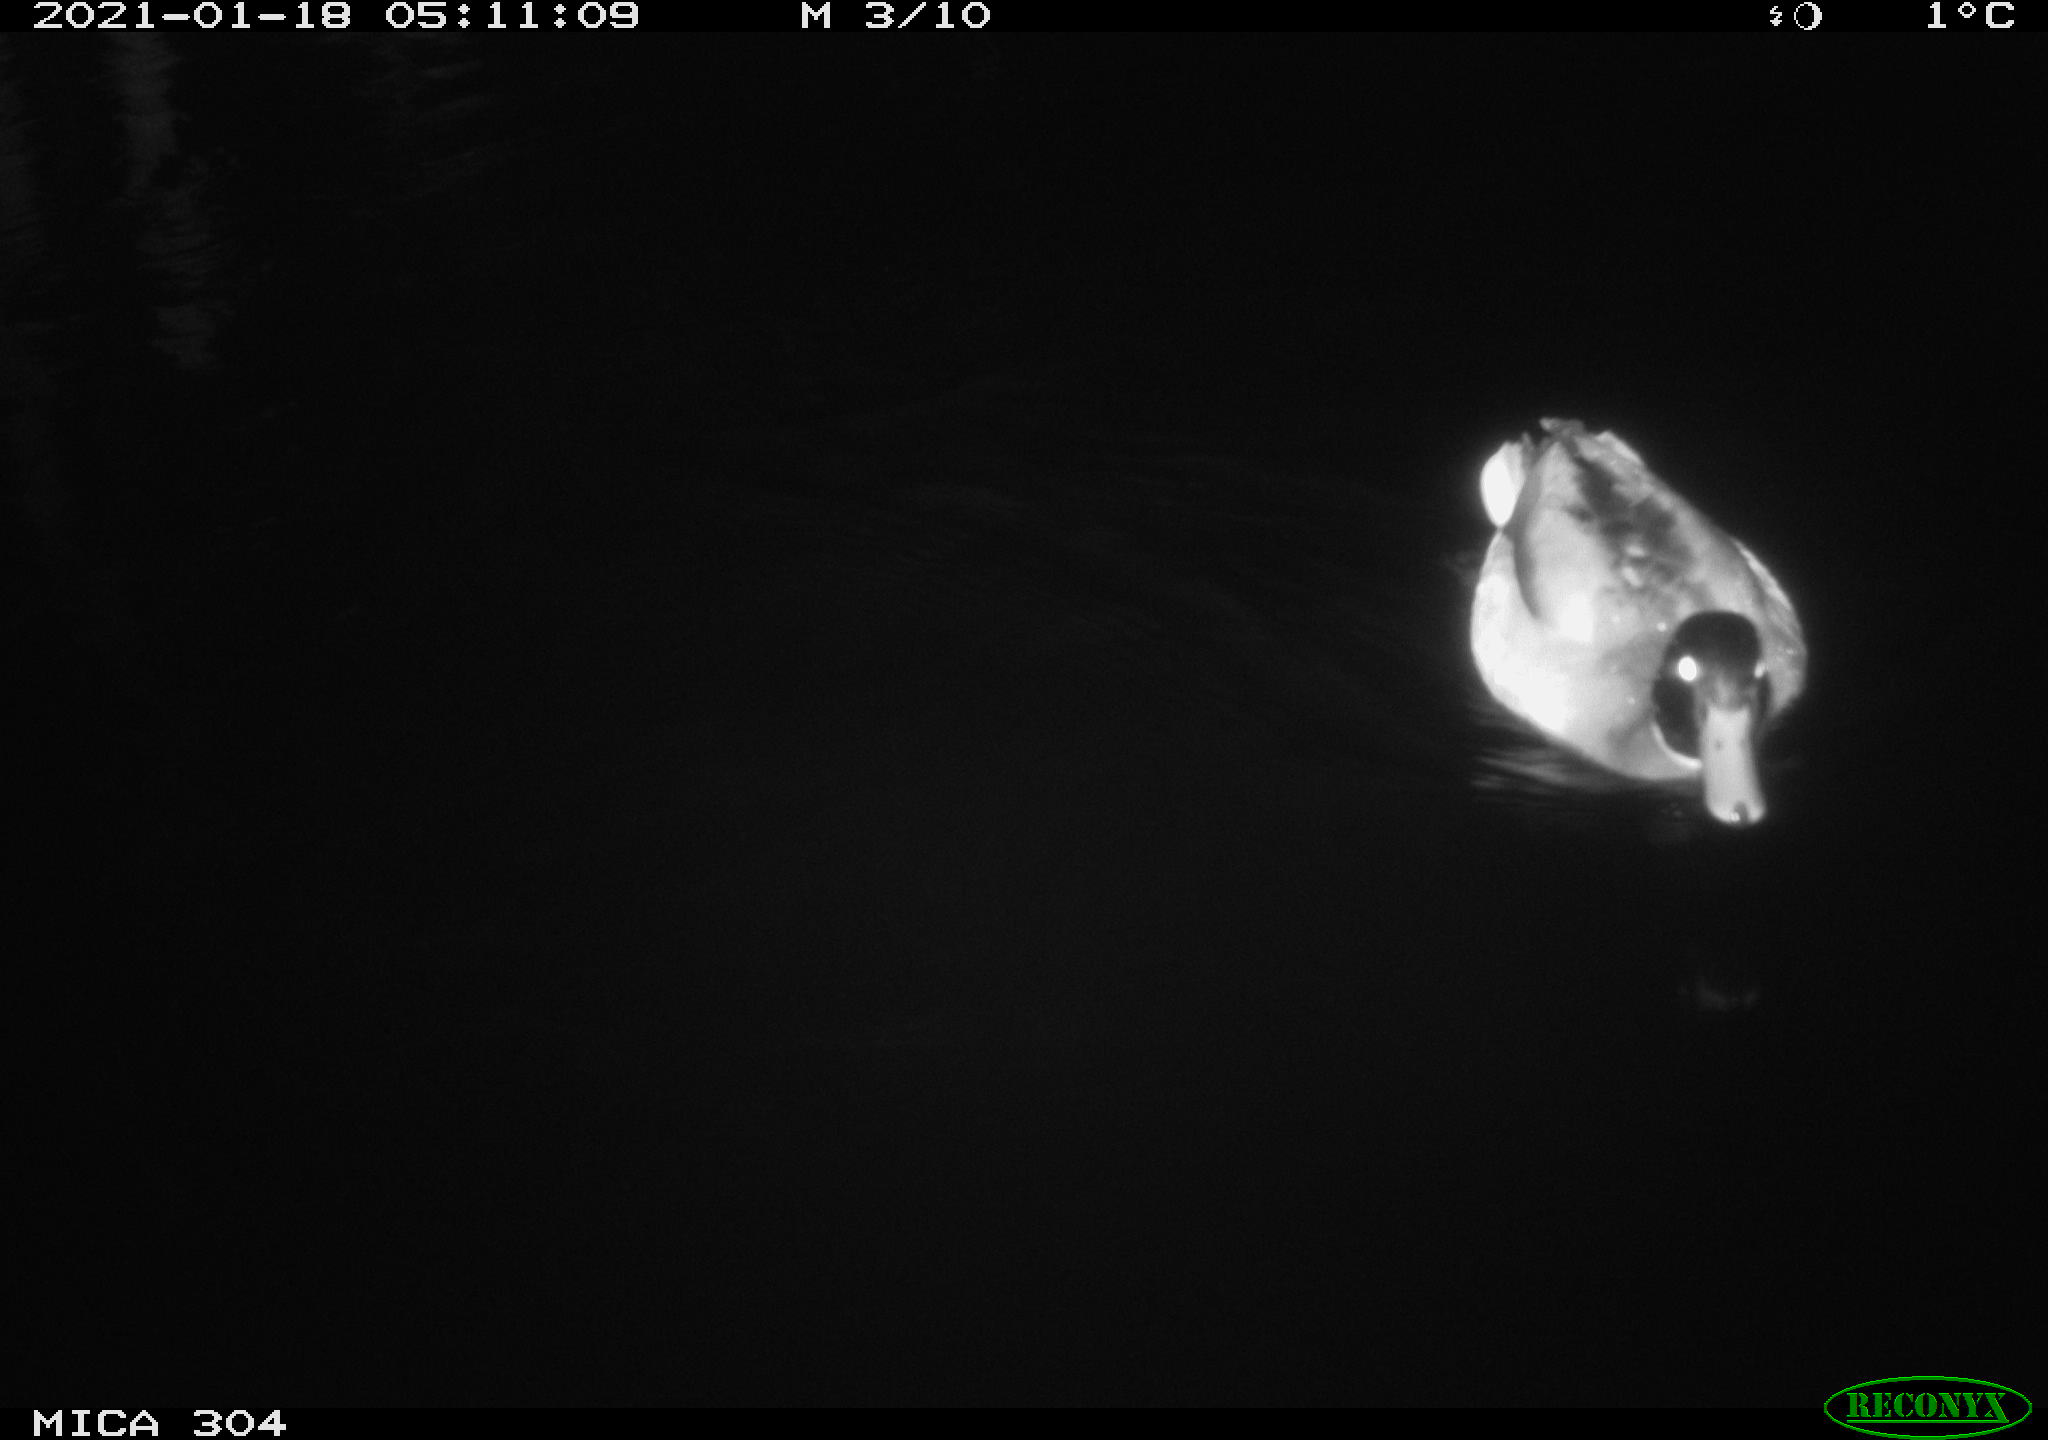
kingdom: Animalia
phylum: Chordata
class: Aves
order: Anseriformes
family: Anatidae
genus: Anas
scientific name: Anas platyrhynchos
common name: Mallard
